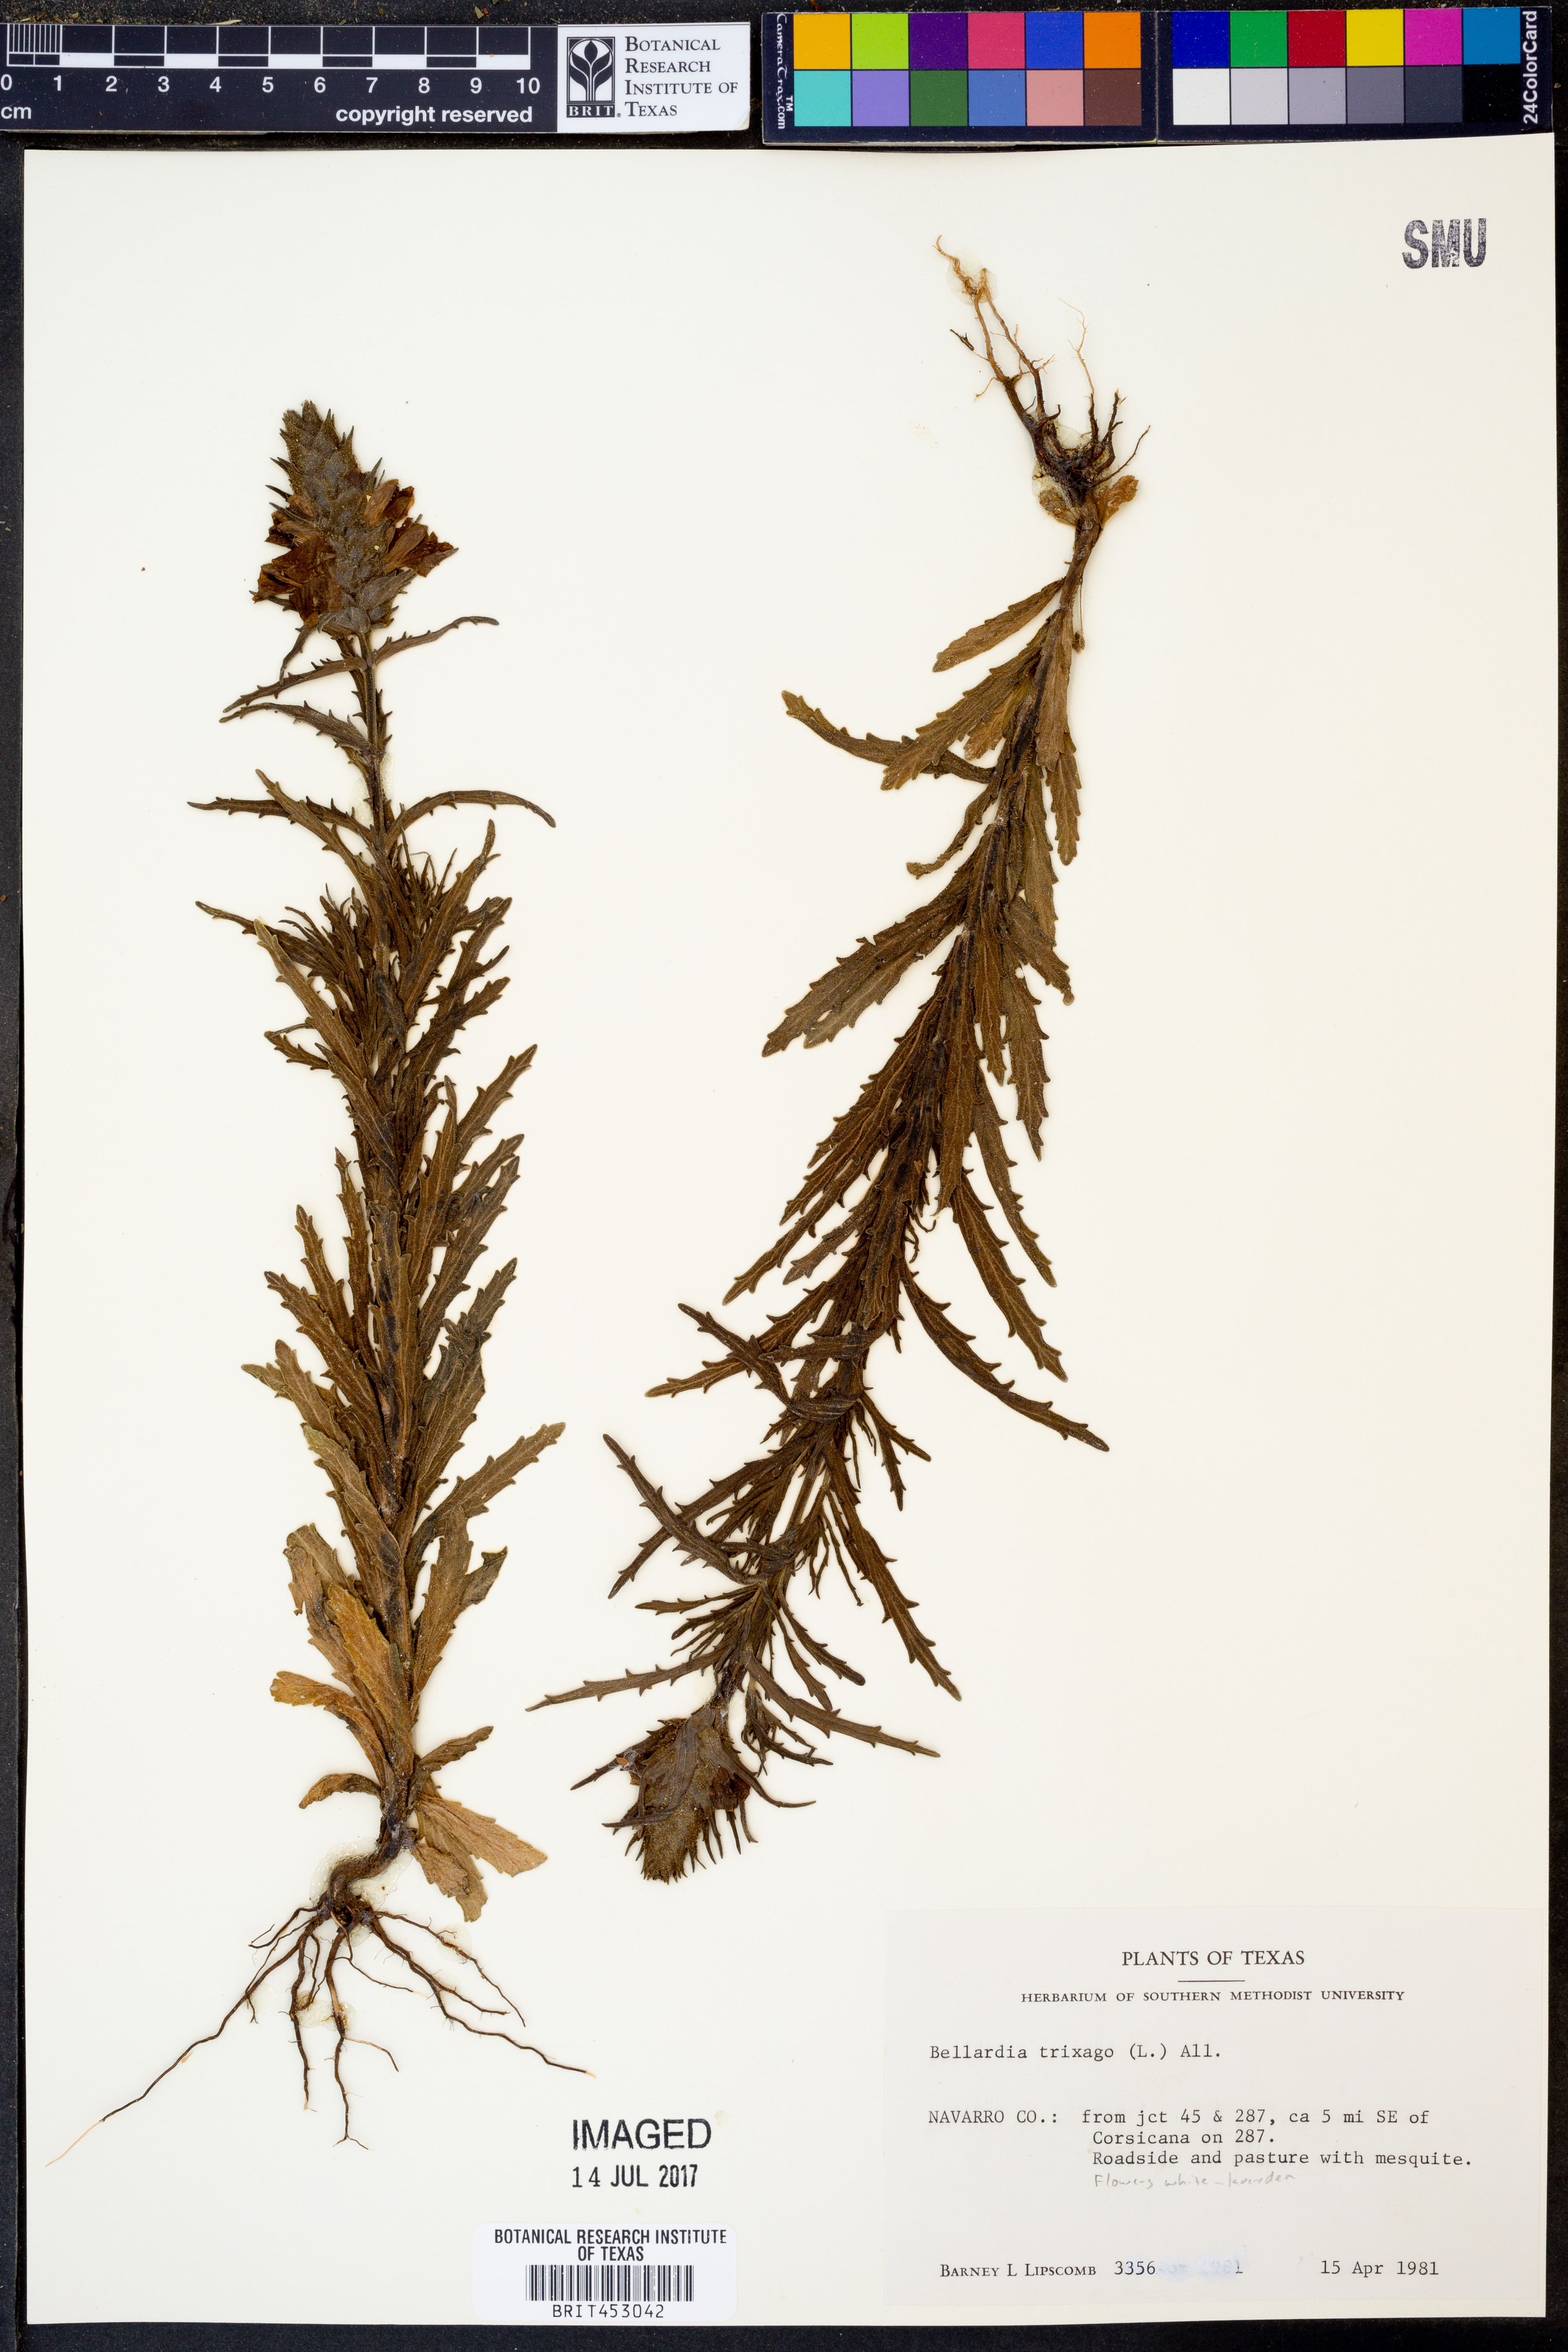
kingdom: Plantae
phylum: Tracheophyta
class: Magnoliopsida
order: Lamiales
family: Orobanchaceae
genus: Bellardia
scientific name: Bellardia trixago
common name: Mediterranean lineseed
